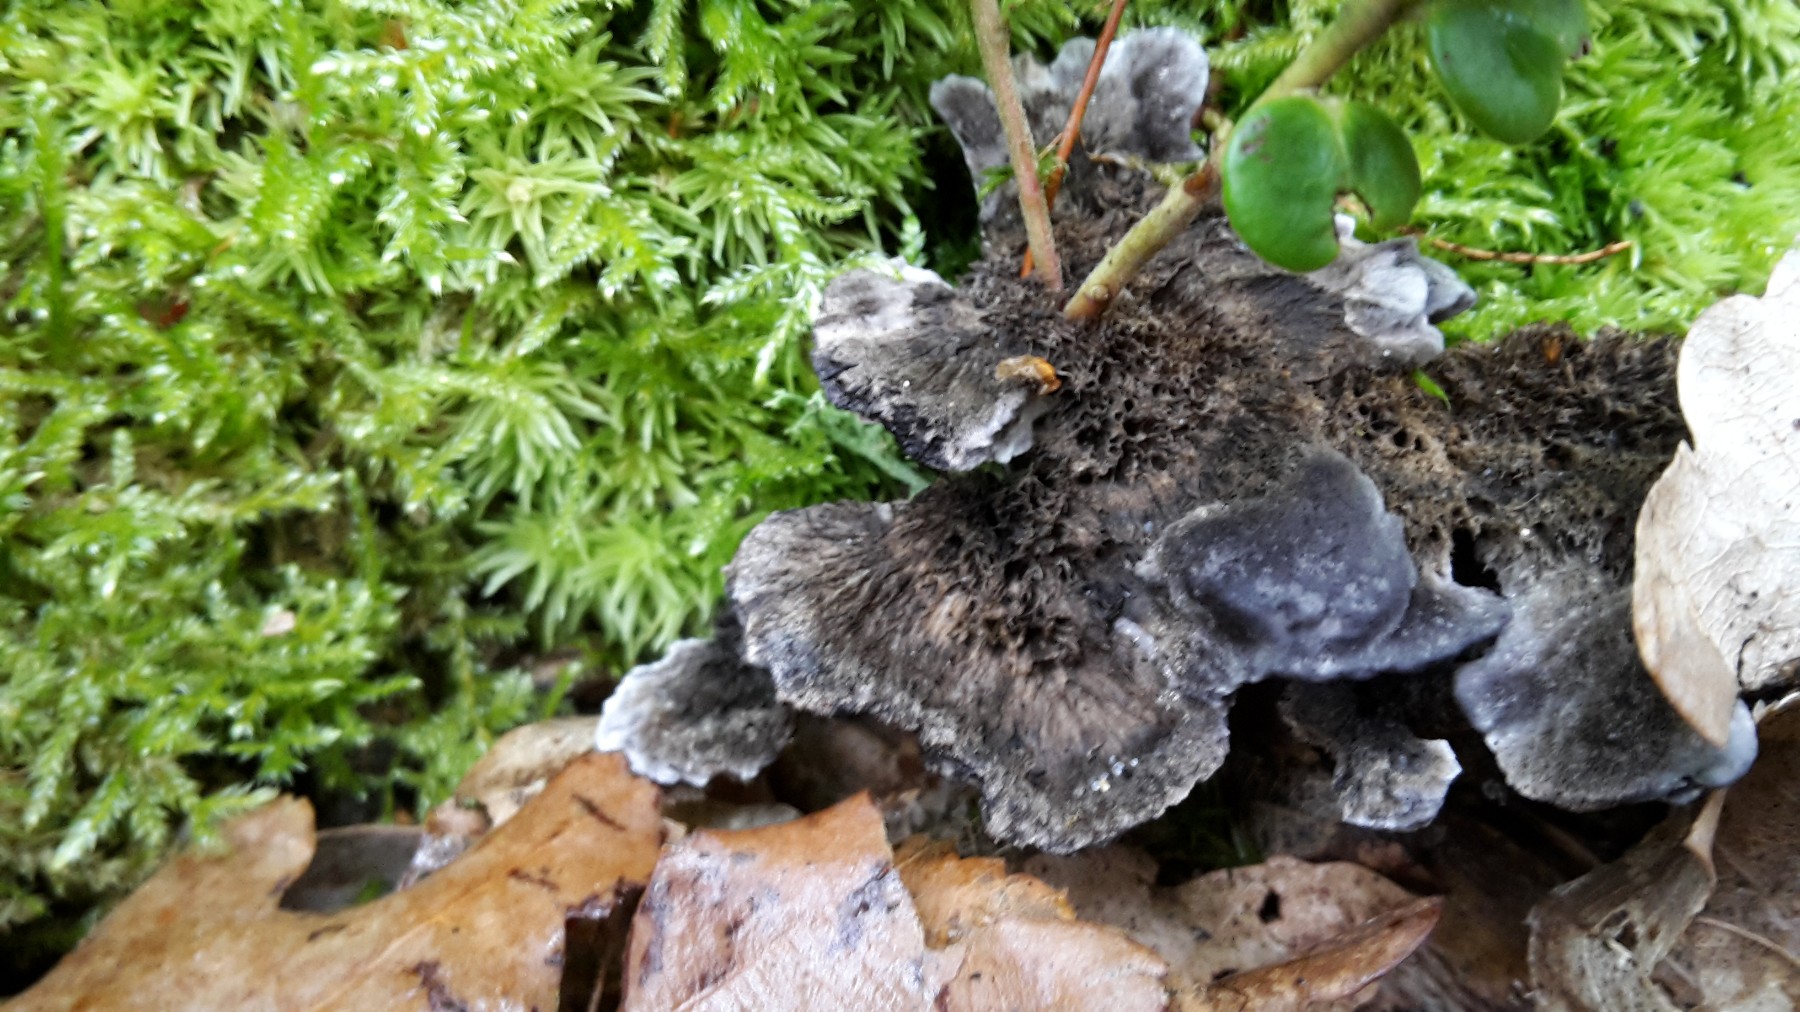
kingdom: Fungi
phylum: Basidiomycota
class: Agaricomycetes
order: Thelephorales
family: Thelephoraceae
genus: Phellodon
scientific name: Phellodon
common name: mørk duftpigsvamp
